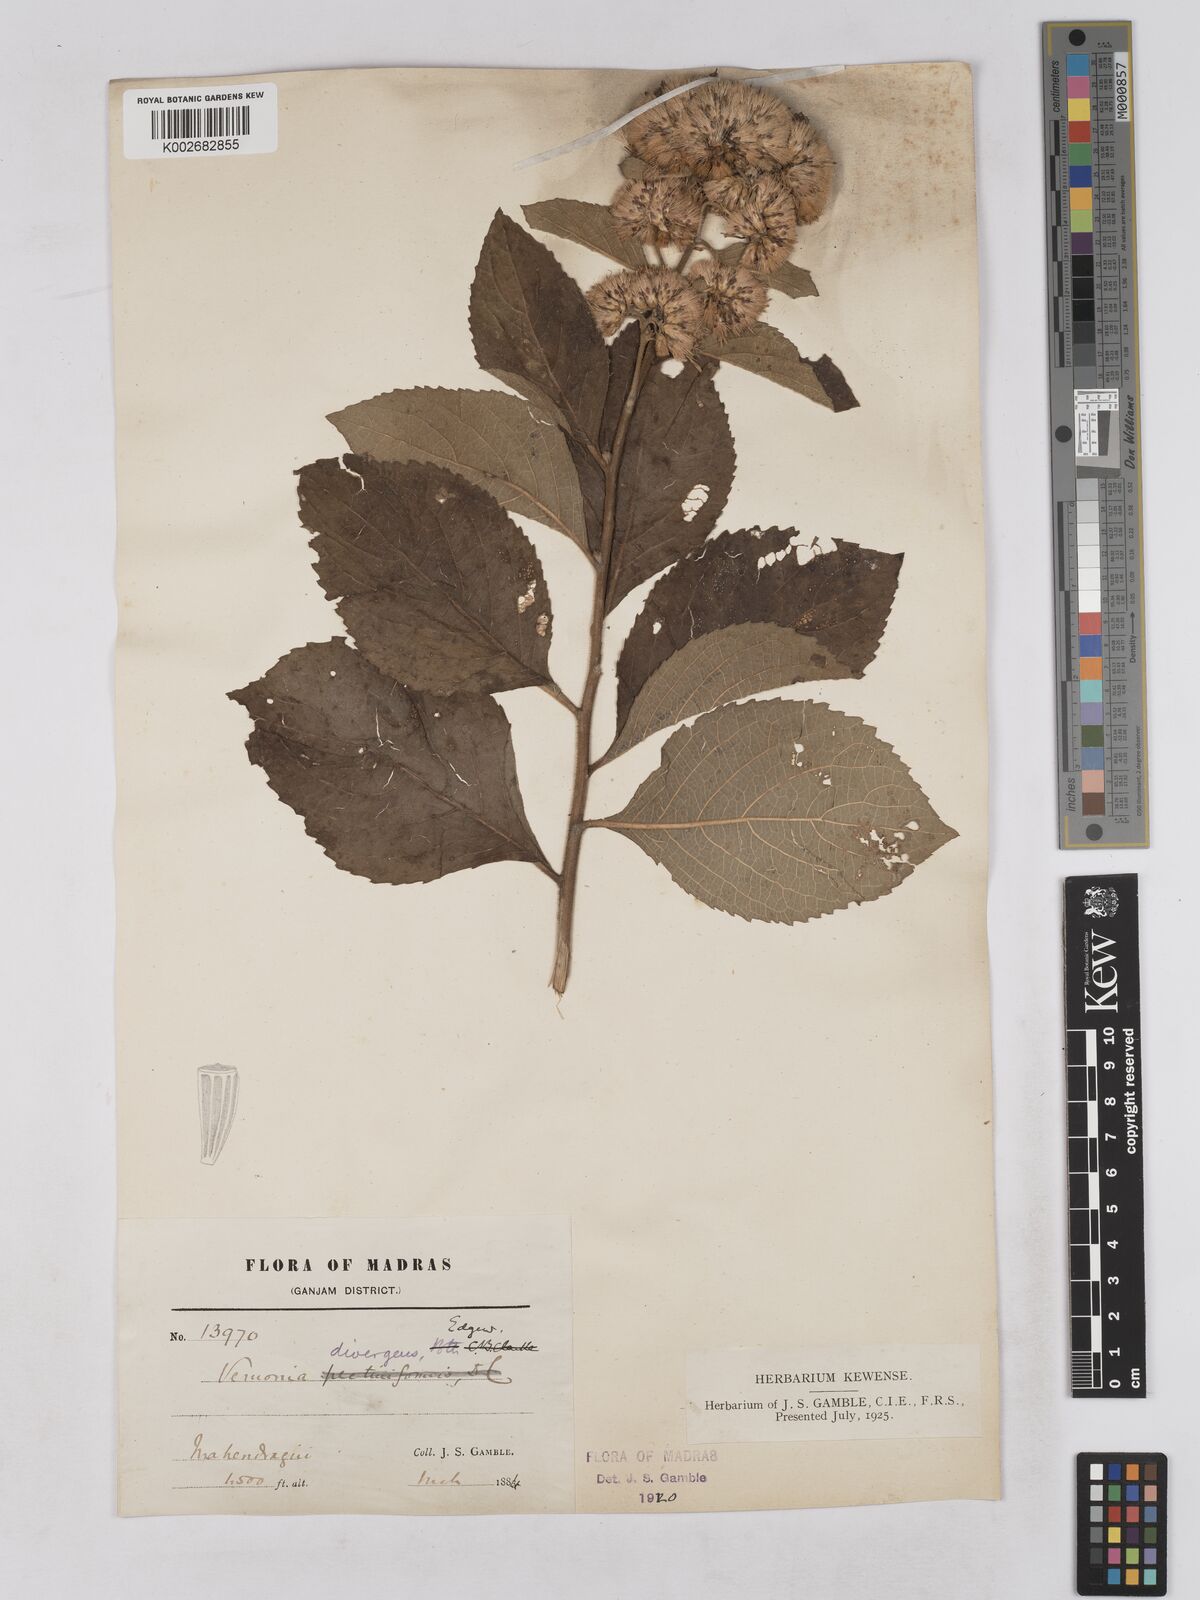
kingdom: Plantae
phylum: Tracheophyta
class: Magnoliopsida
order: Asterales
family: Asteraceae
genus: Acilepis
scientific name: Acilepis divergens
